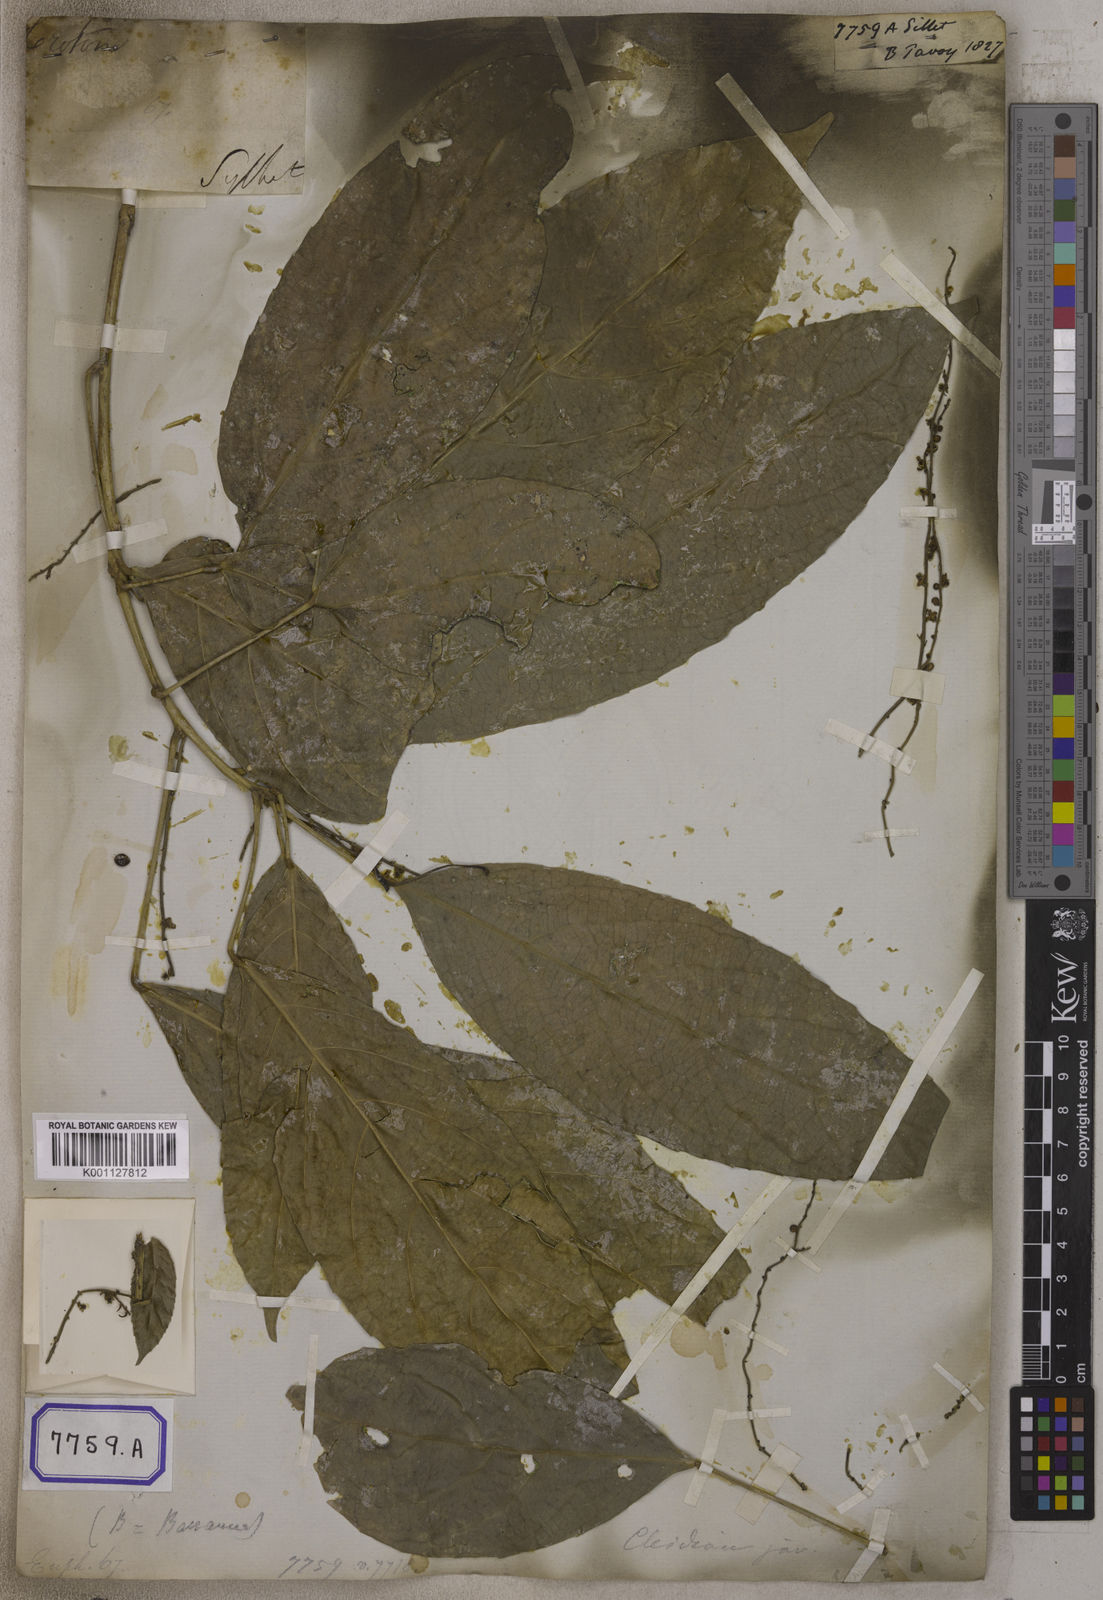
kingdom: Plantae
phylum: Tracheophyta
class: Magnoliopsida
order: Malpighiales
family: Euphorbiaceae
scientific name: Euphorbiaceae
